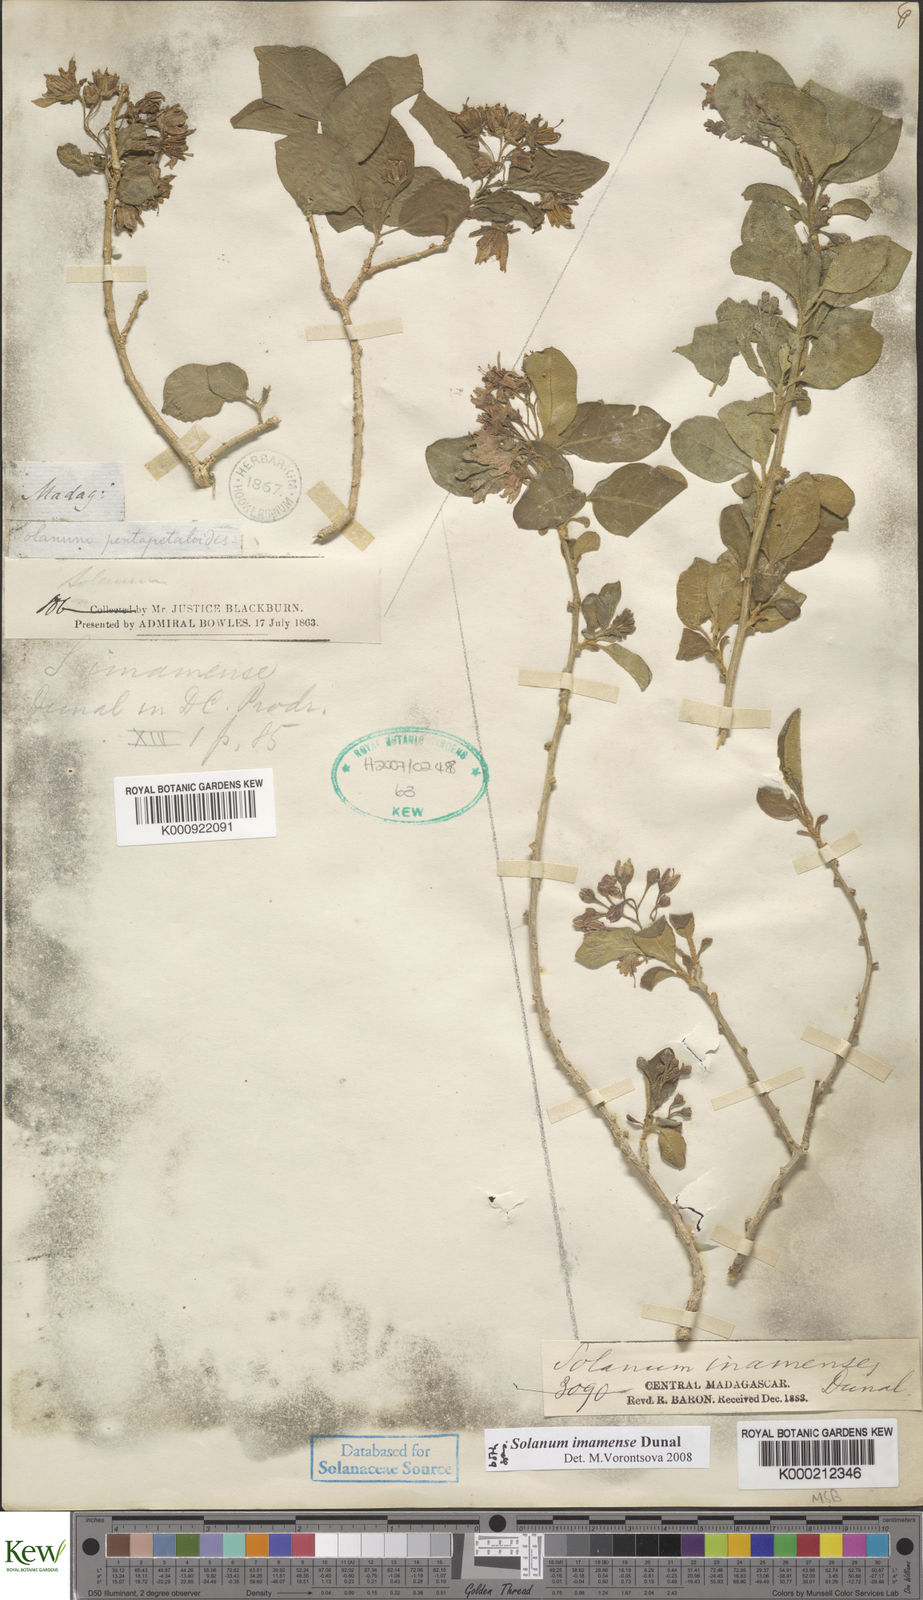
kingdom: Plantae
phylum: Tracheophyta
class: Magnoliopsida
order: Solanales
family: Solanaceae
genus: Solanum
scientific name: Solanum imamense
